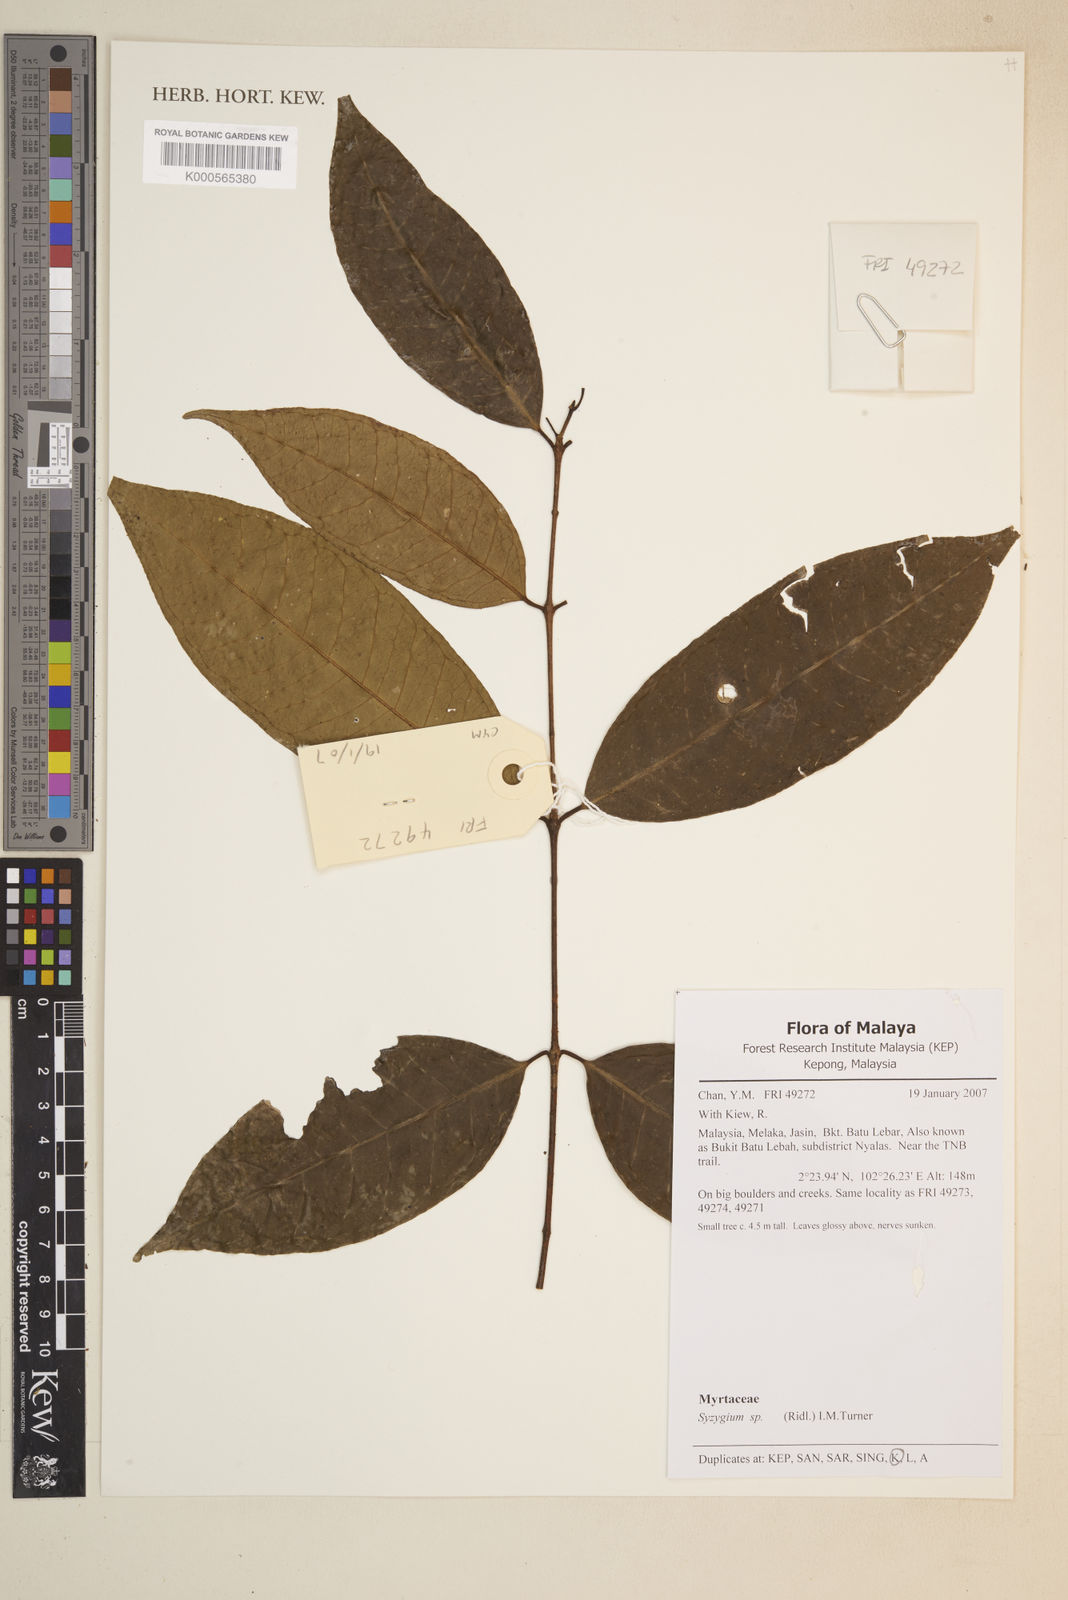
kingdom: Plantae
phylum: Tracheophyta
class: Magnoliopsida
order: Myrtales
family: Myrtaceae
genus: Syzygium
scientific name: Syzygium
